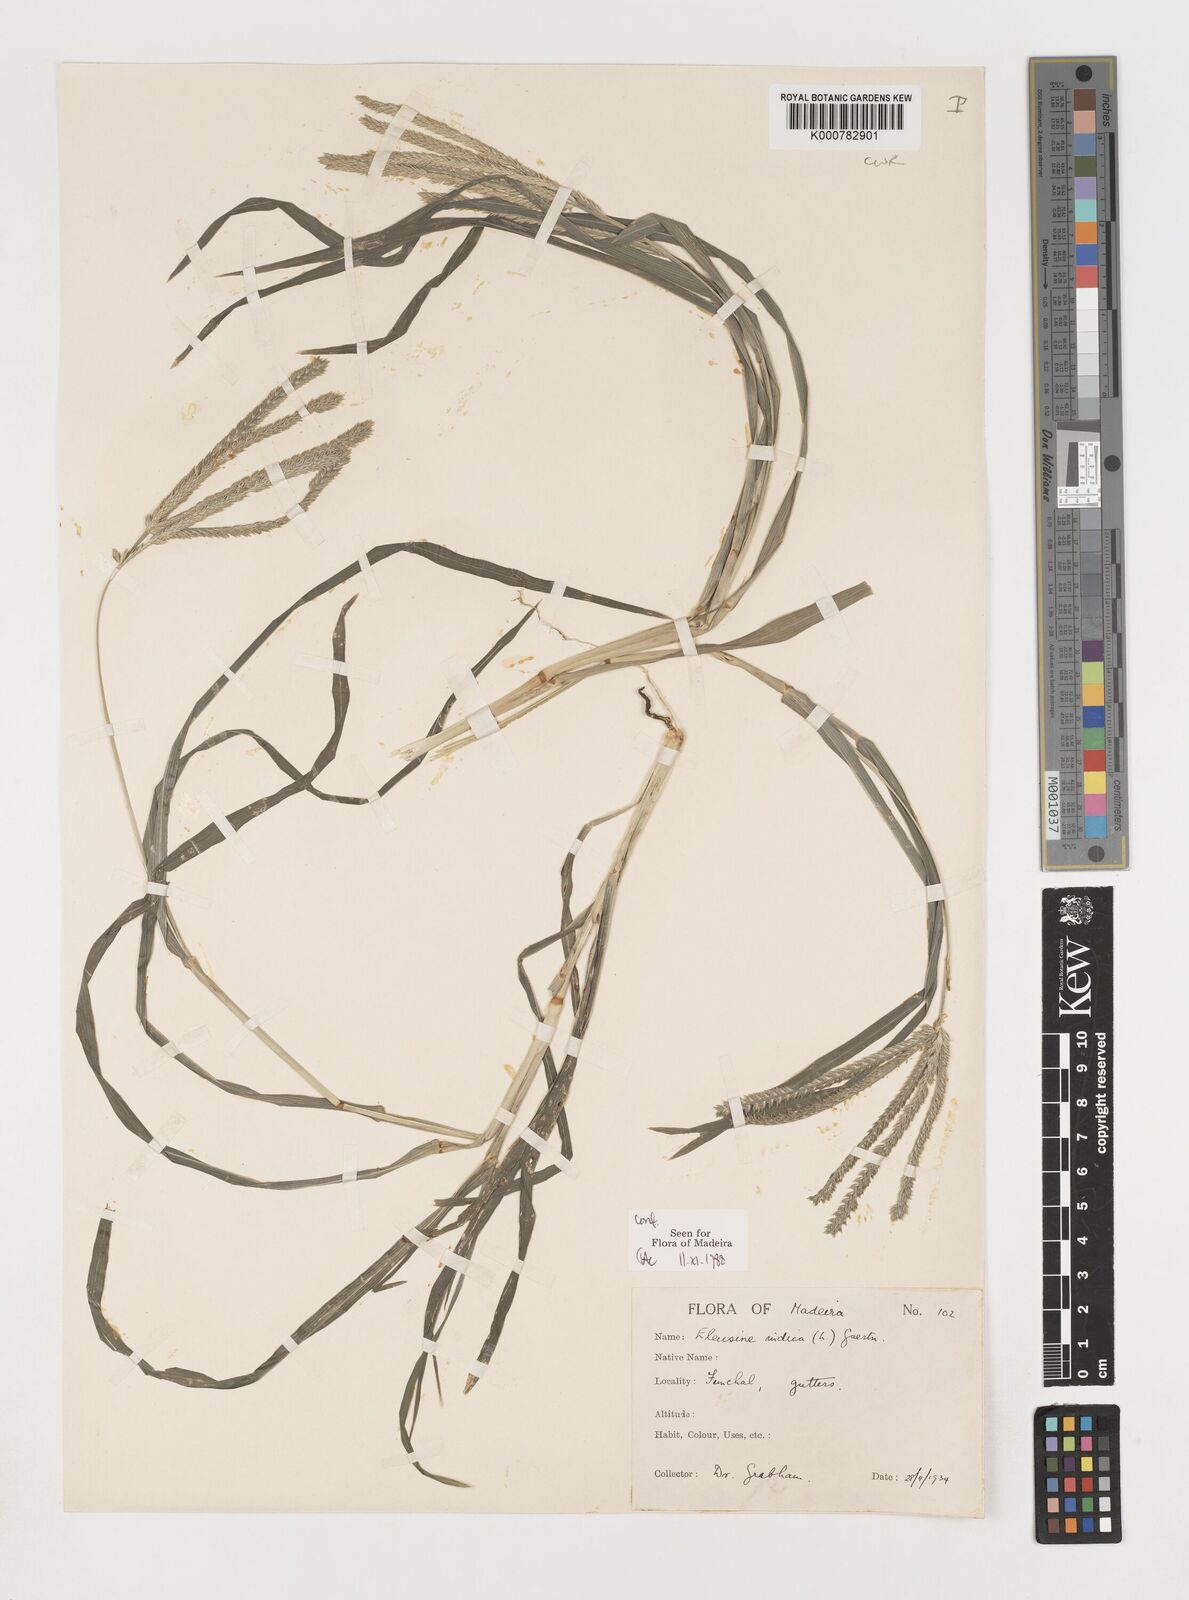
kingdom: Plantae
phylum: Tracheophyta
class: Liliopsida
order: Poales
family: Poaceae
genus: Eleusine
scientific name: Eleusine indica
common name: Yard-grass
